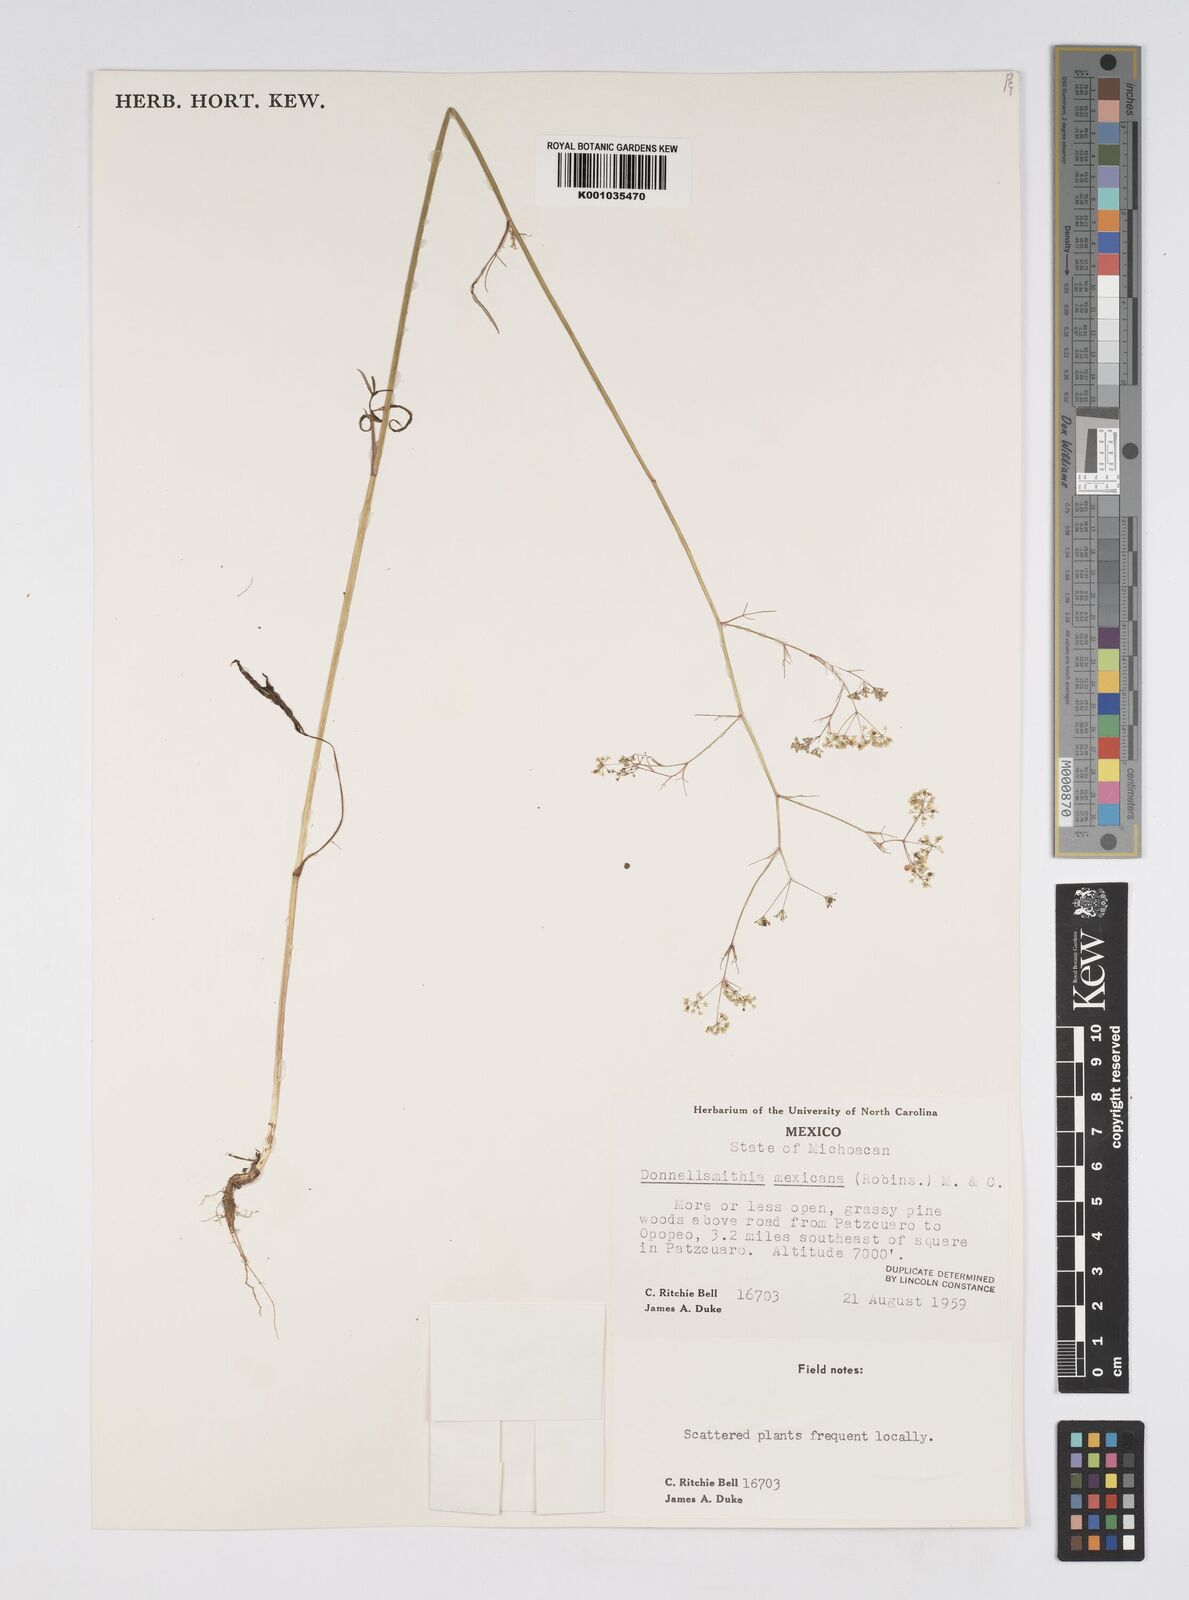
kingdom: Plantae
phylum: Tracheophyta
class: Magnoliopsida
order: Apiales
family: Apiaceae
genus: Donnellsmithia
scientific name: Donnellsmithia mexicana
